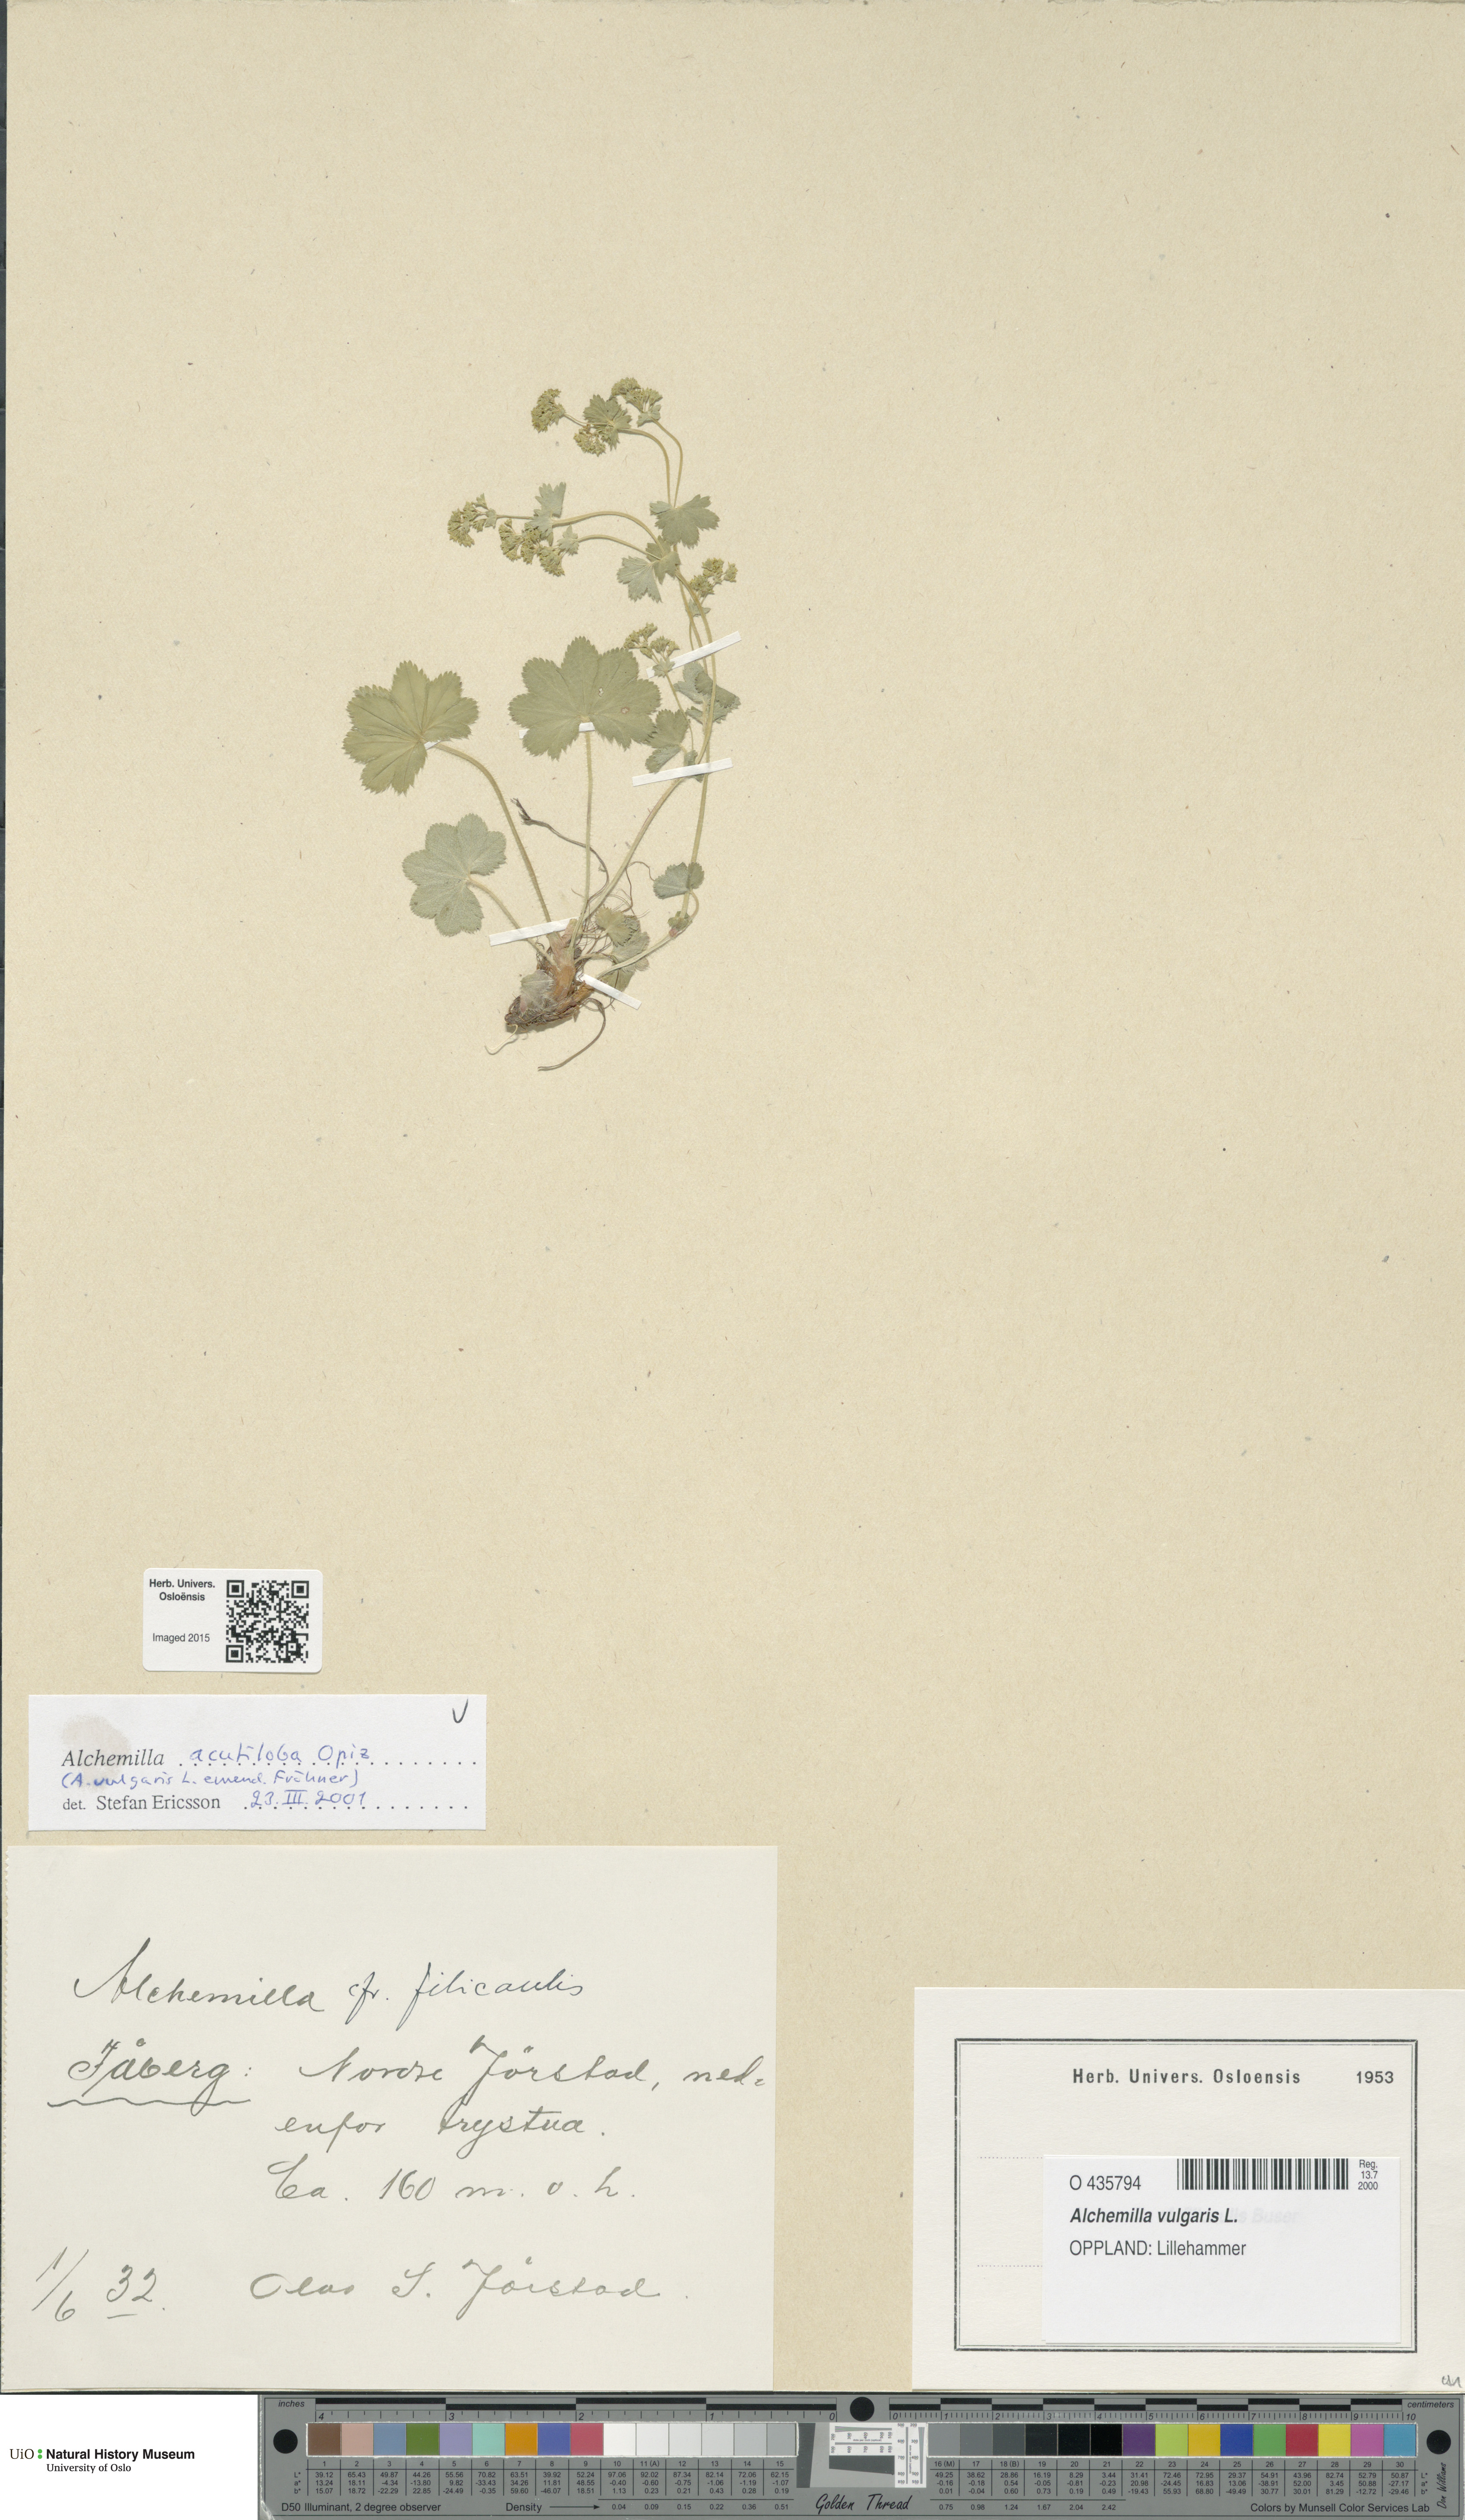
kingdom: Plantae
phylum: Tracheophyta
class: Magnoliopsida
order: Rosales
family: Rosaceae
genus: Alchemilla
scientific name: Alchemilla vulgaris
